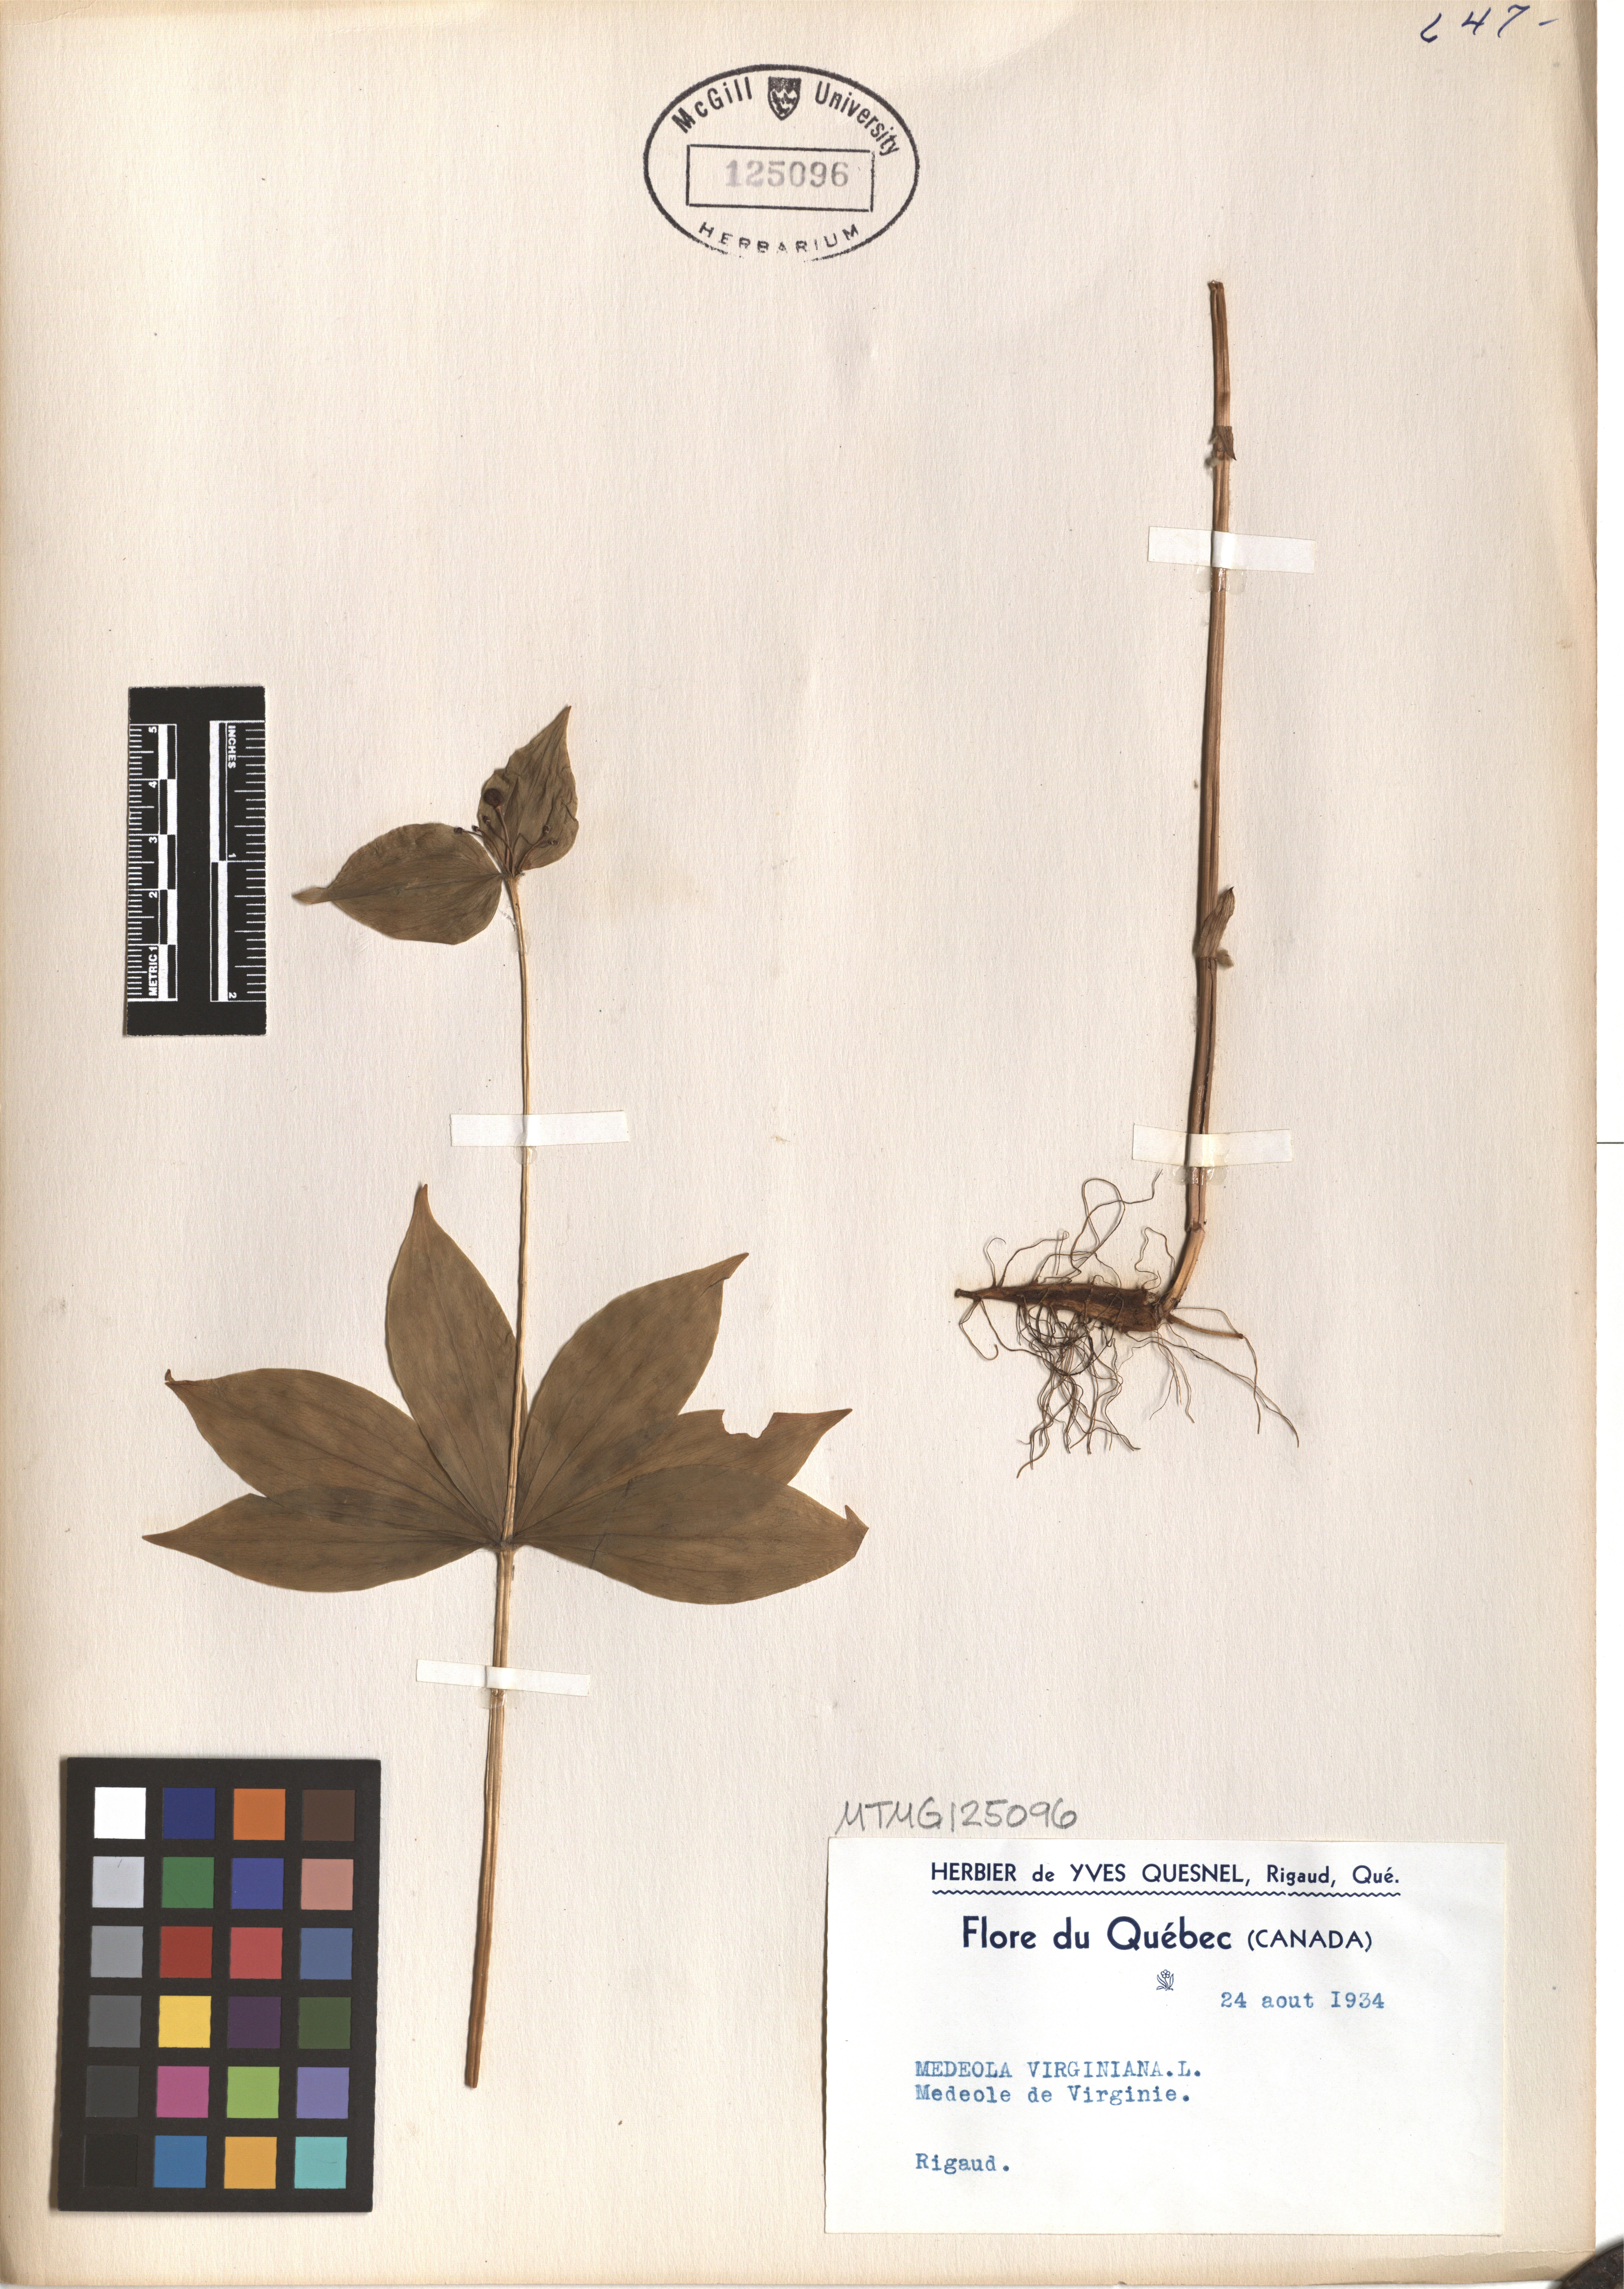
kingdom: Plantae
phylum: Tracheophyta
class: Liliopsida
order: Liliales
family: Liliaceae
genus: Medeola
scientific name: Medeola virginiana
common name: Indian cucumber-root
